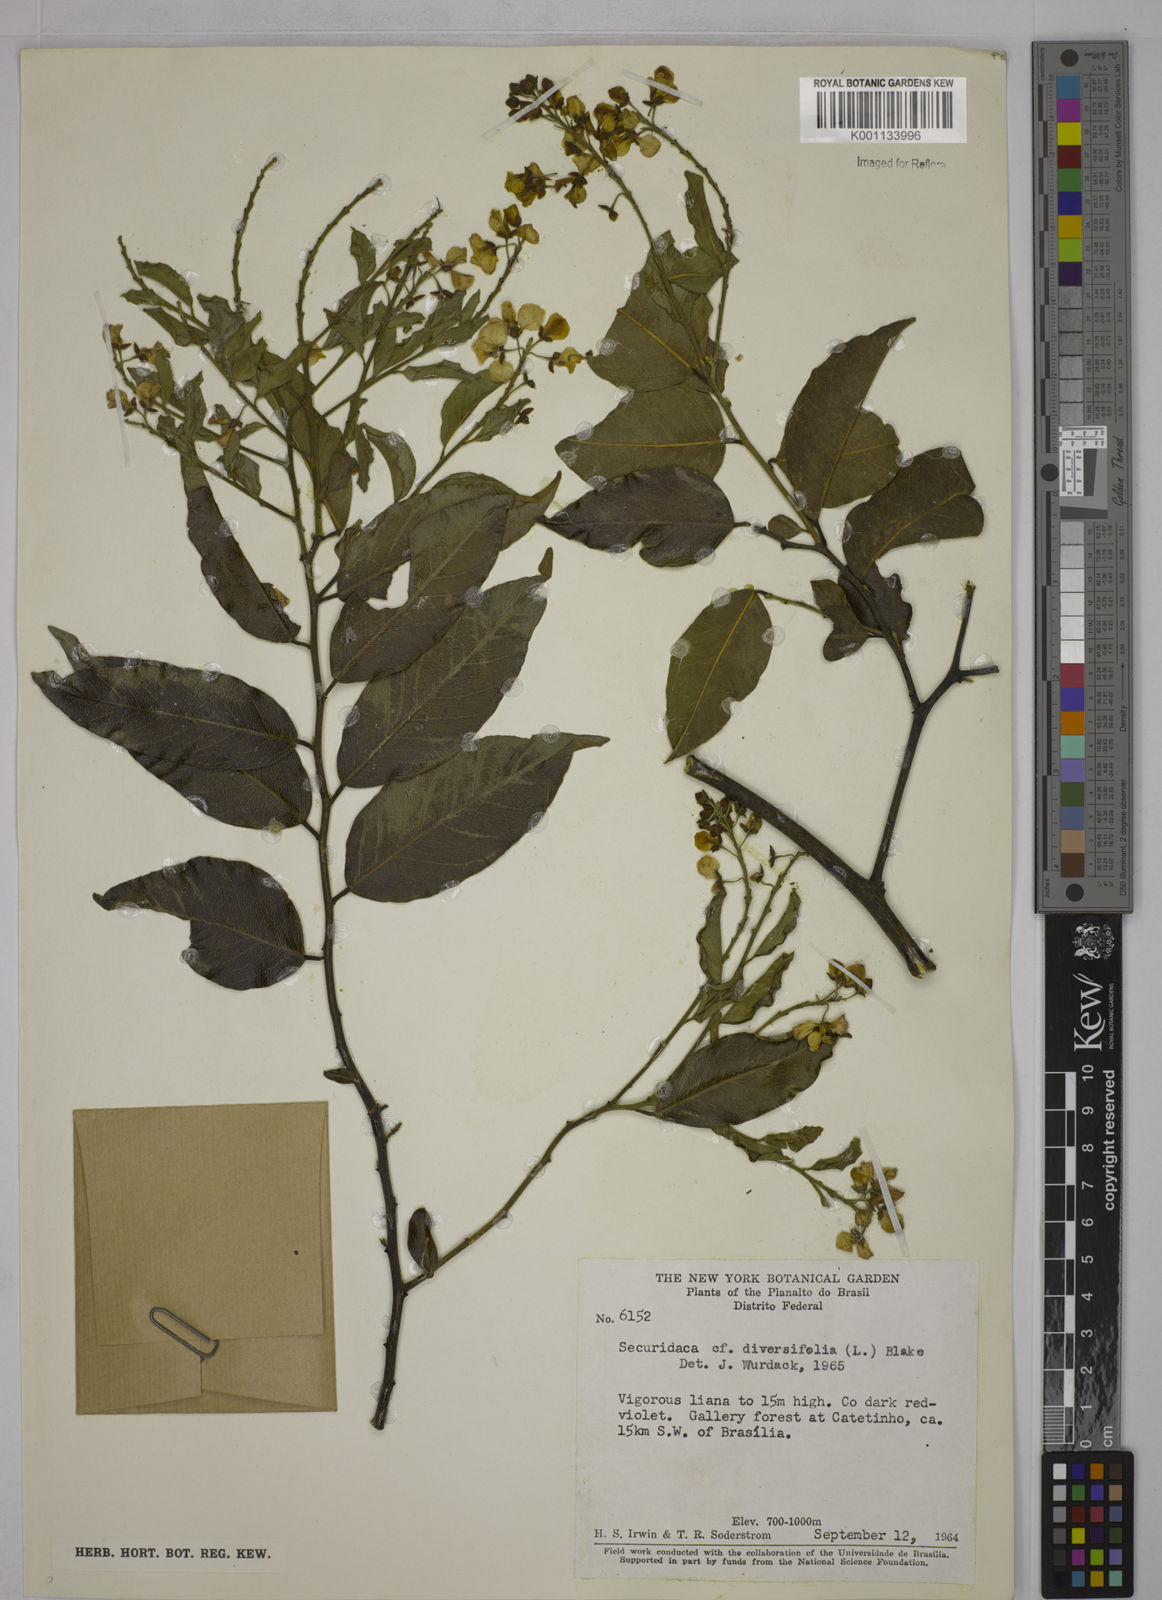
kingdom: Plantae
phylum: Tracheophyta
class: Magnoliopsida
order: Fabales
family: Polygalaceae
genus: Securidaca
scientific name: Securidaca diversifolia
